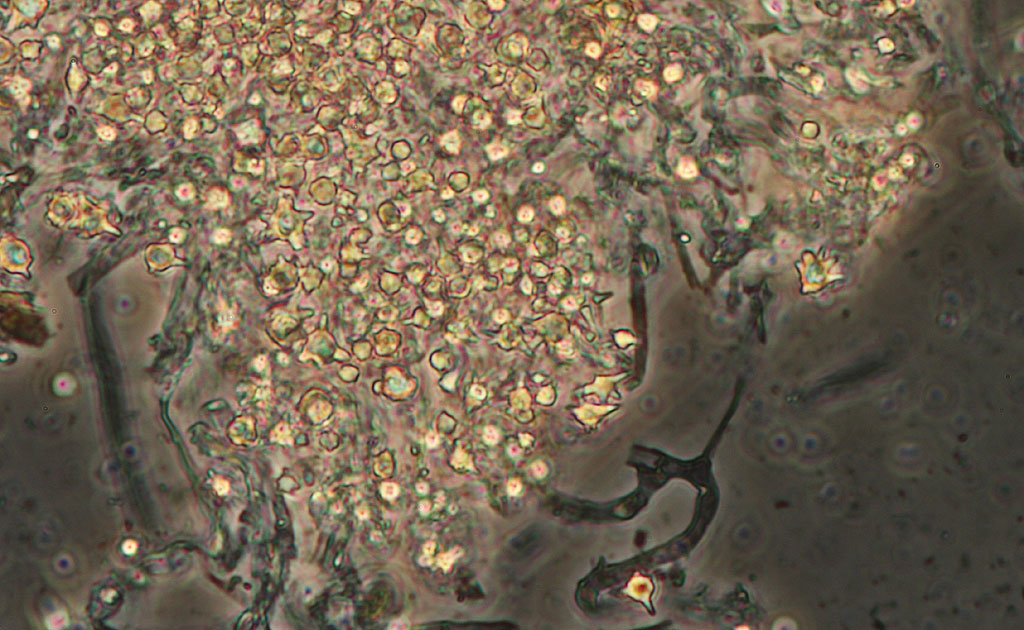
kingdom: Fungi
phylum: Basidiomycota
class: Agaricomycetes
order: Gomphales
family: Gomphaceae
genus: Phaeoclavulina
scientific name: Phaeoclavulina flaccida
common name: spinkel koralsvamp
